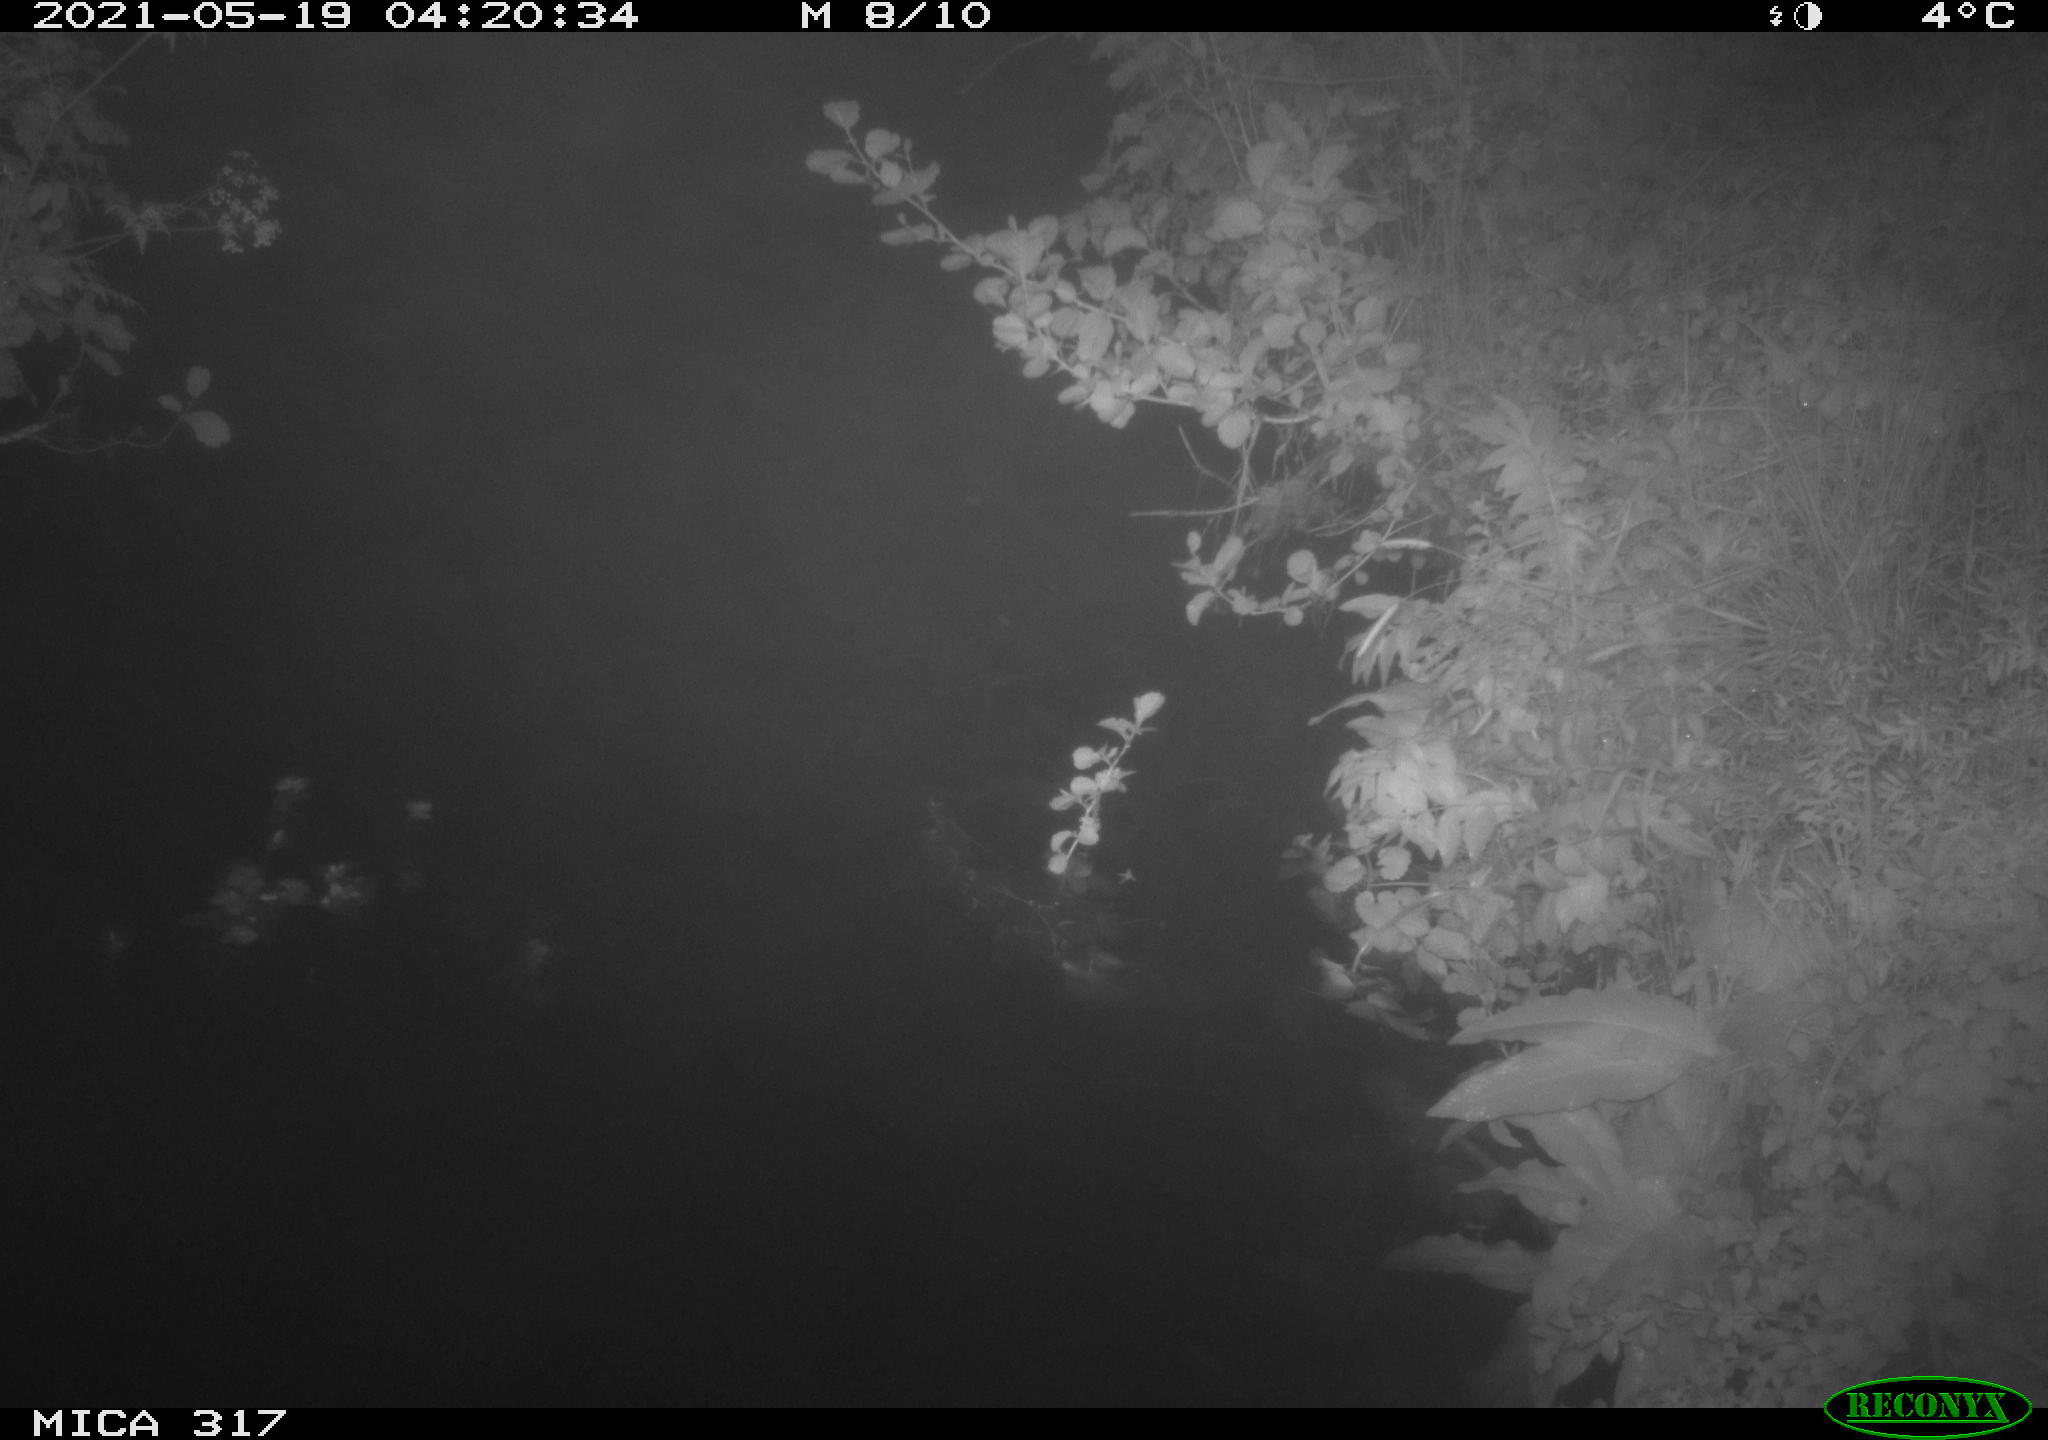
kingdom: Animalia
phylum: Chordata
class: Aves
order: Anseriformes
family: Anatidae
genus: Anas
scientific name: Anas
